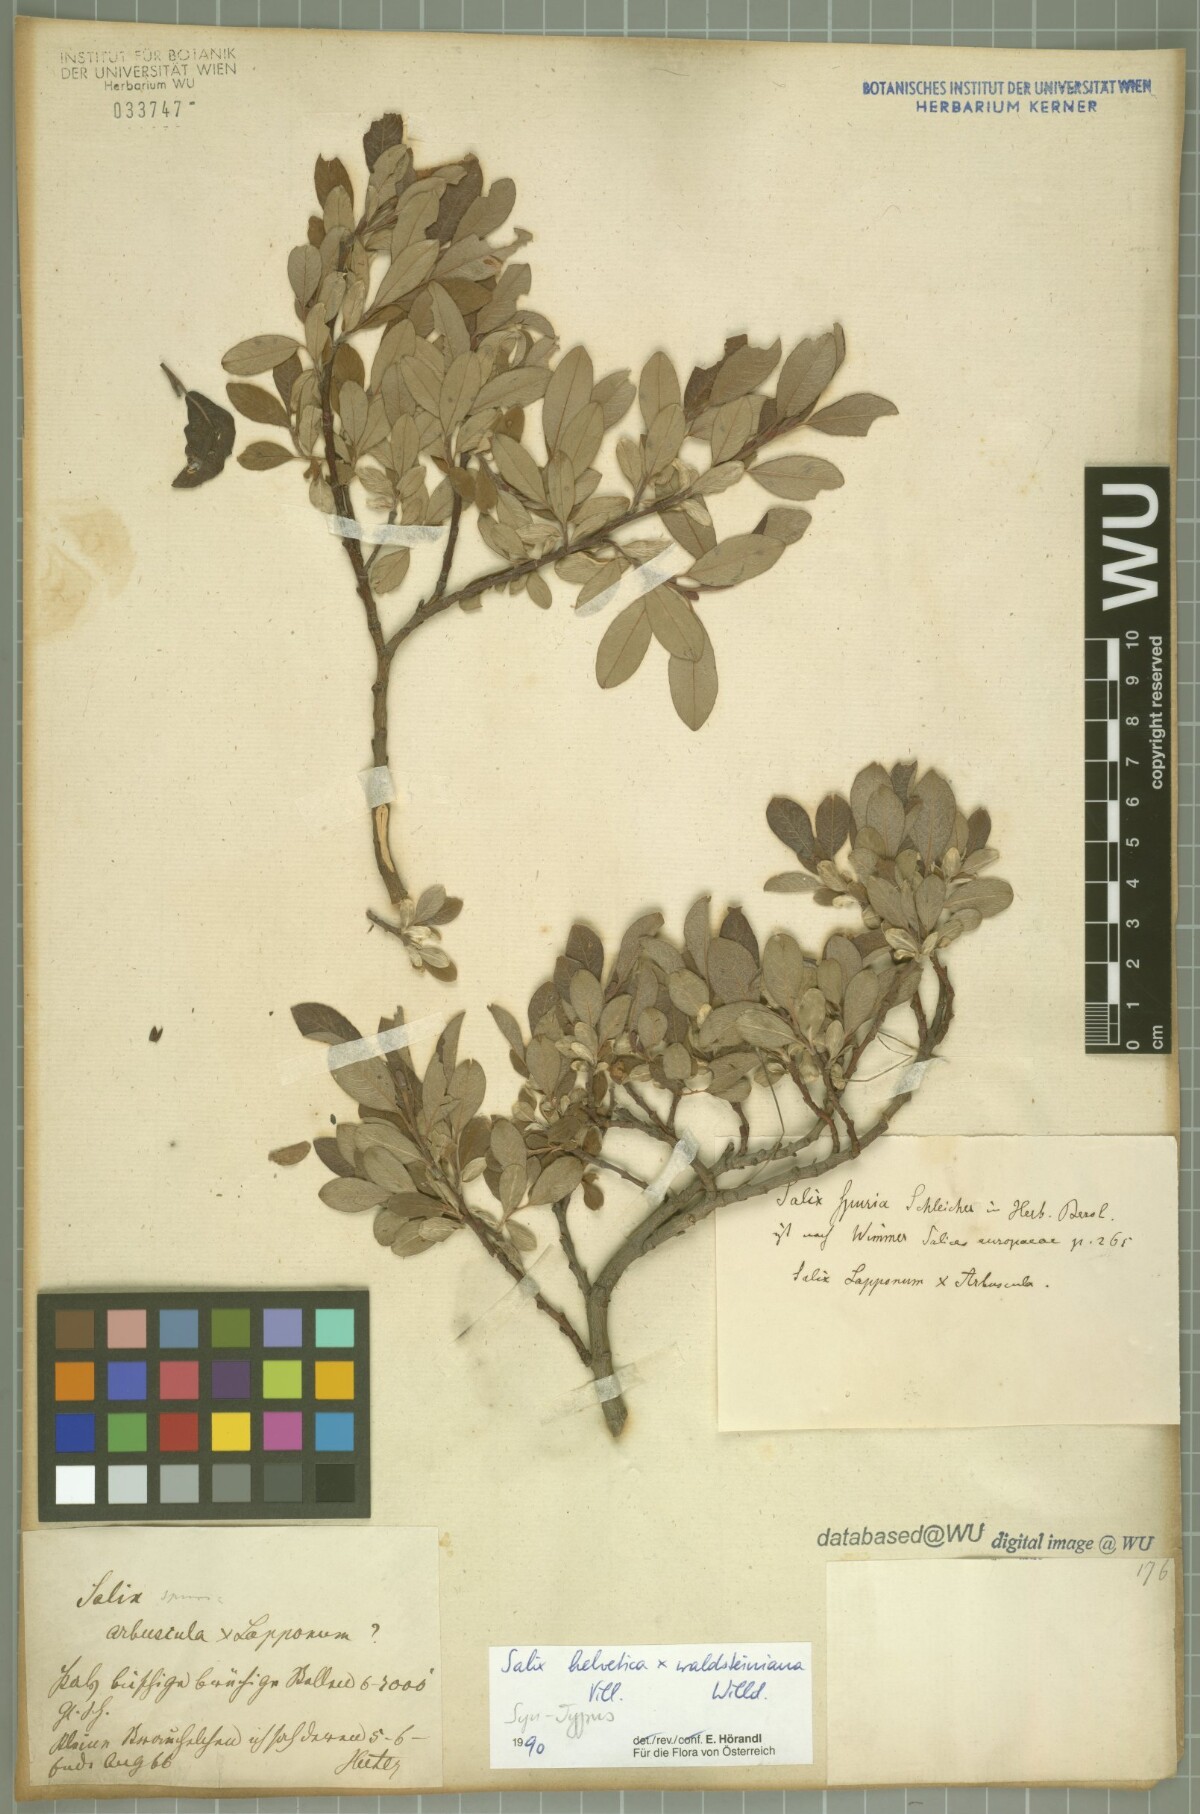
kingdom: Plantae
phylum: Tracheophyta
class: Magnoliopsida
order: Malpighiales
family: Salicaceae
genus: Salix
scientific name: Salix lapponum
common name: Downy willow
